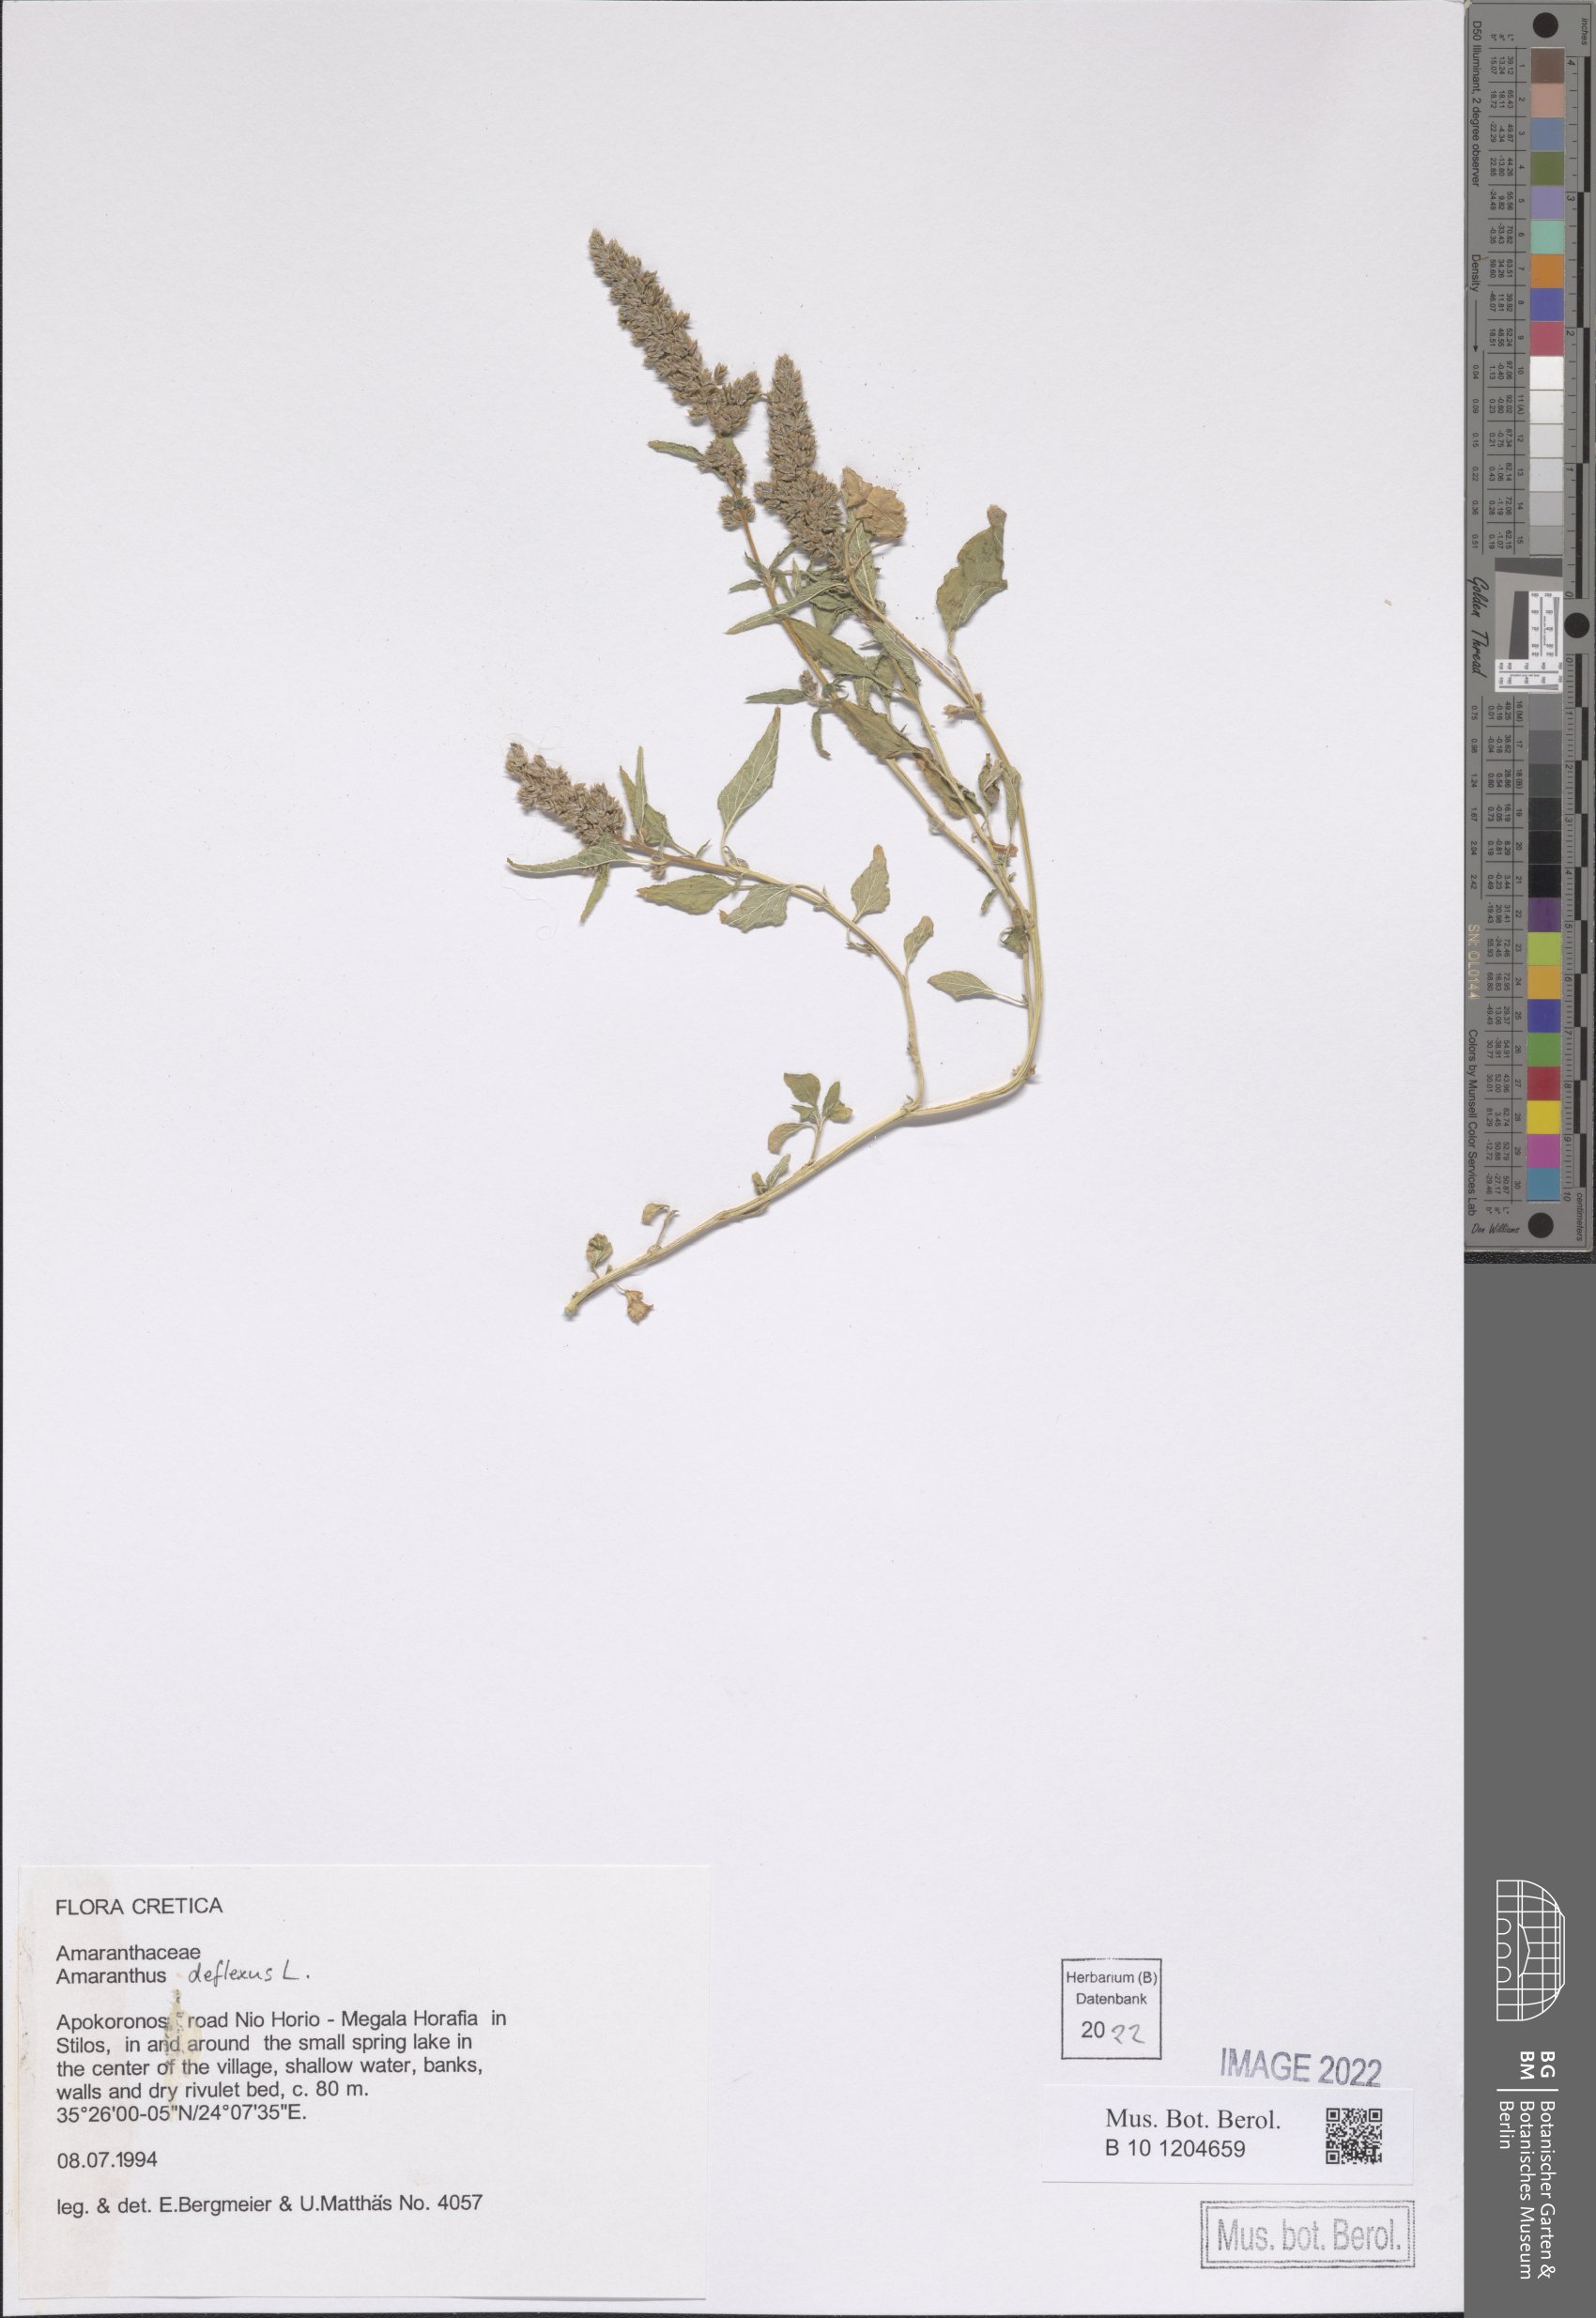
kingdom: Plantae
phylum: Tracheophyta
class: Magnoliopsida
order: Caryophyllales
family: Amaranthaceae
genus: Amaranthus
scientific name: Amaranthus deflexus
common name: Perennial pigweed
